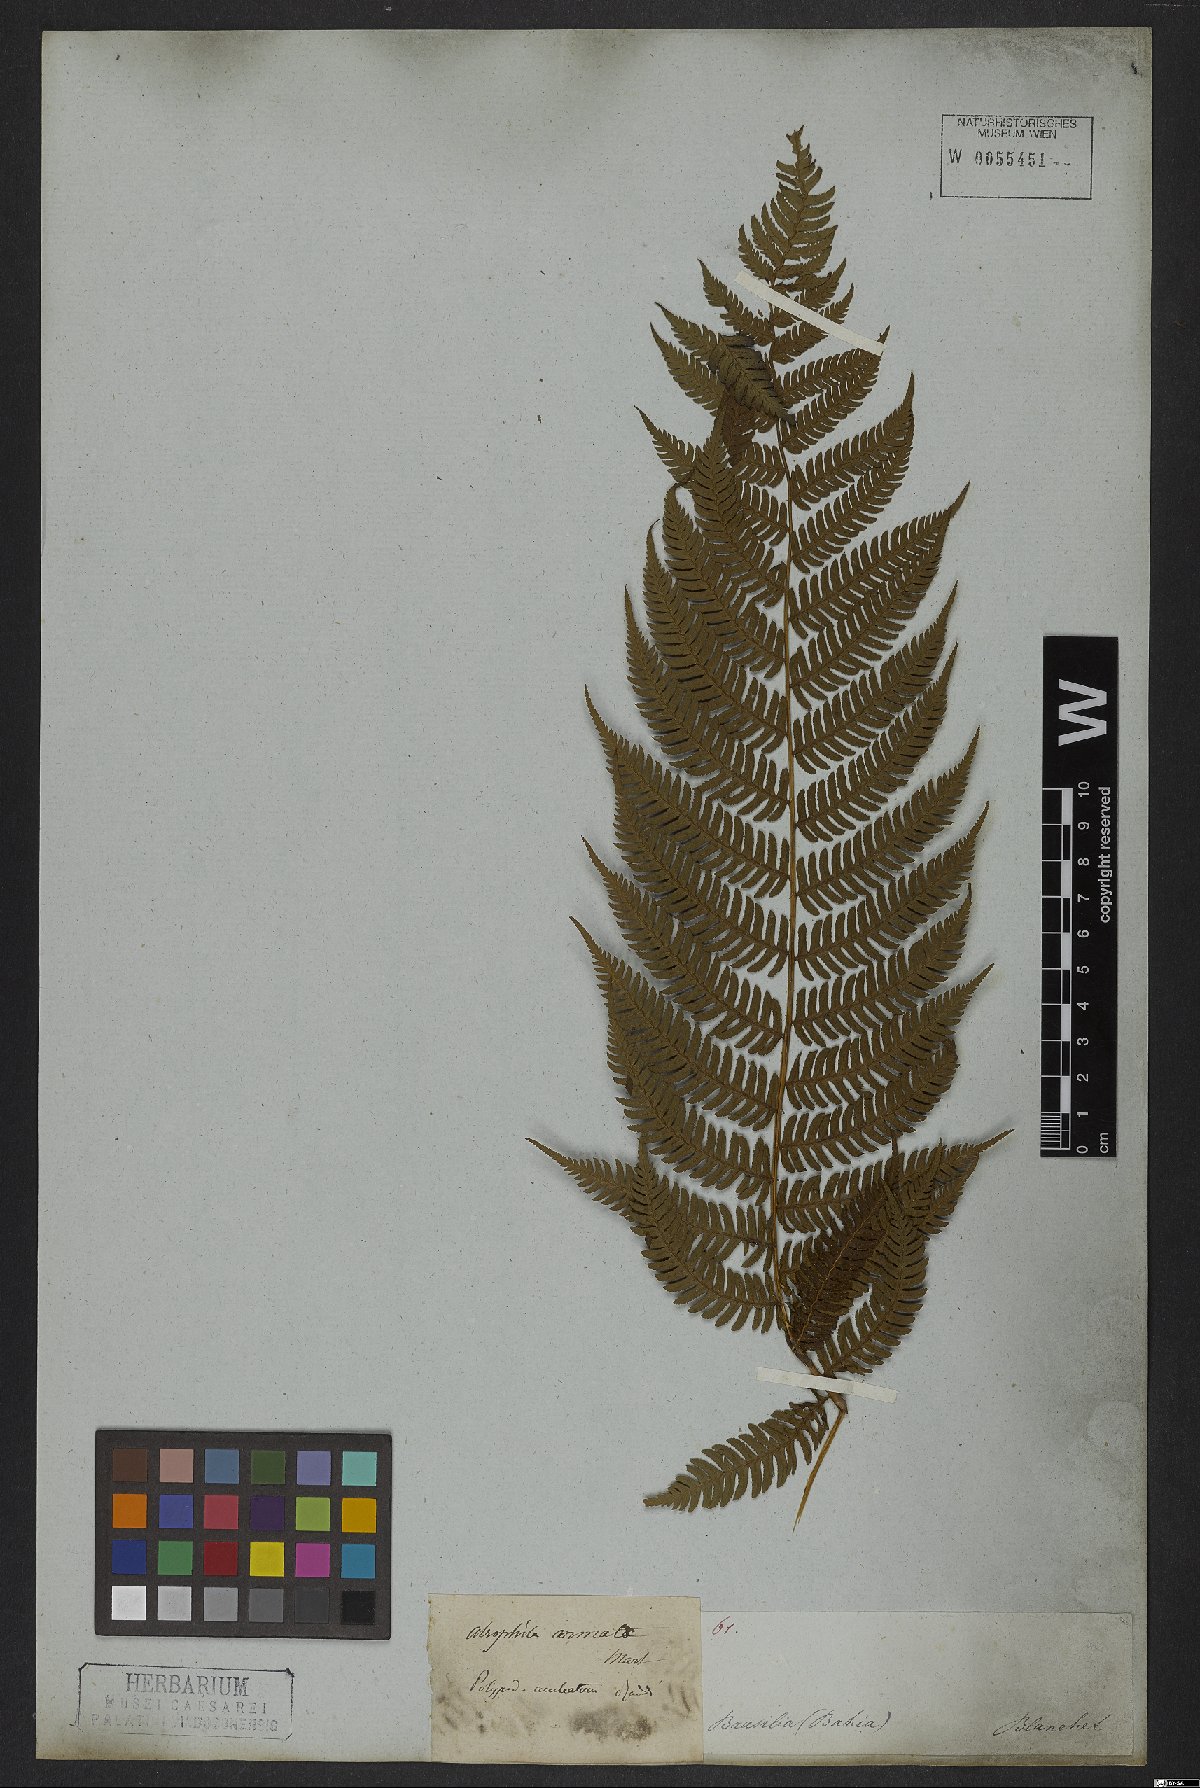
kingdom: Plantae
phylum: Tracheophyta
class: Polypodiopsida
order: Cyatheales
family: Cyatheaceae
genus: Cyathea
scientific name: Cyathea microdonta
